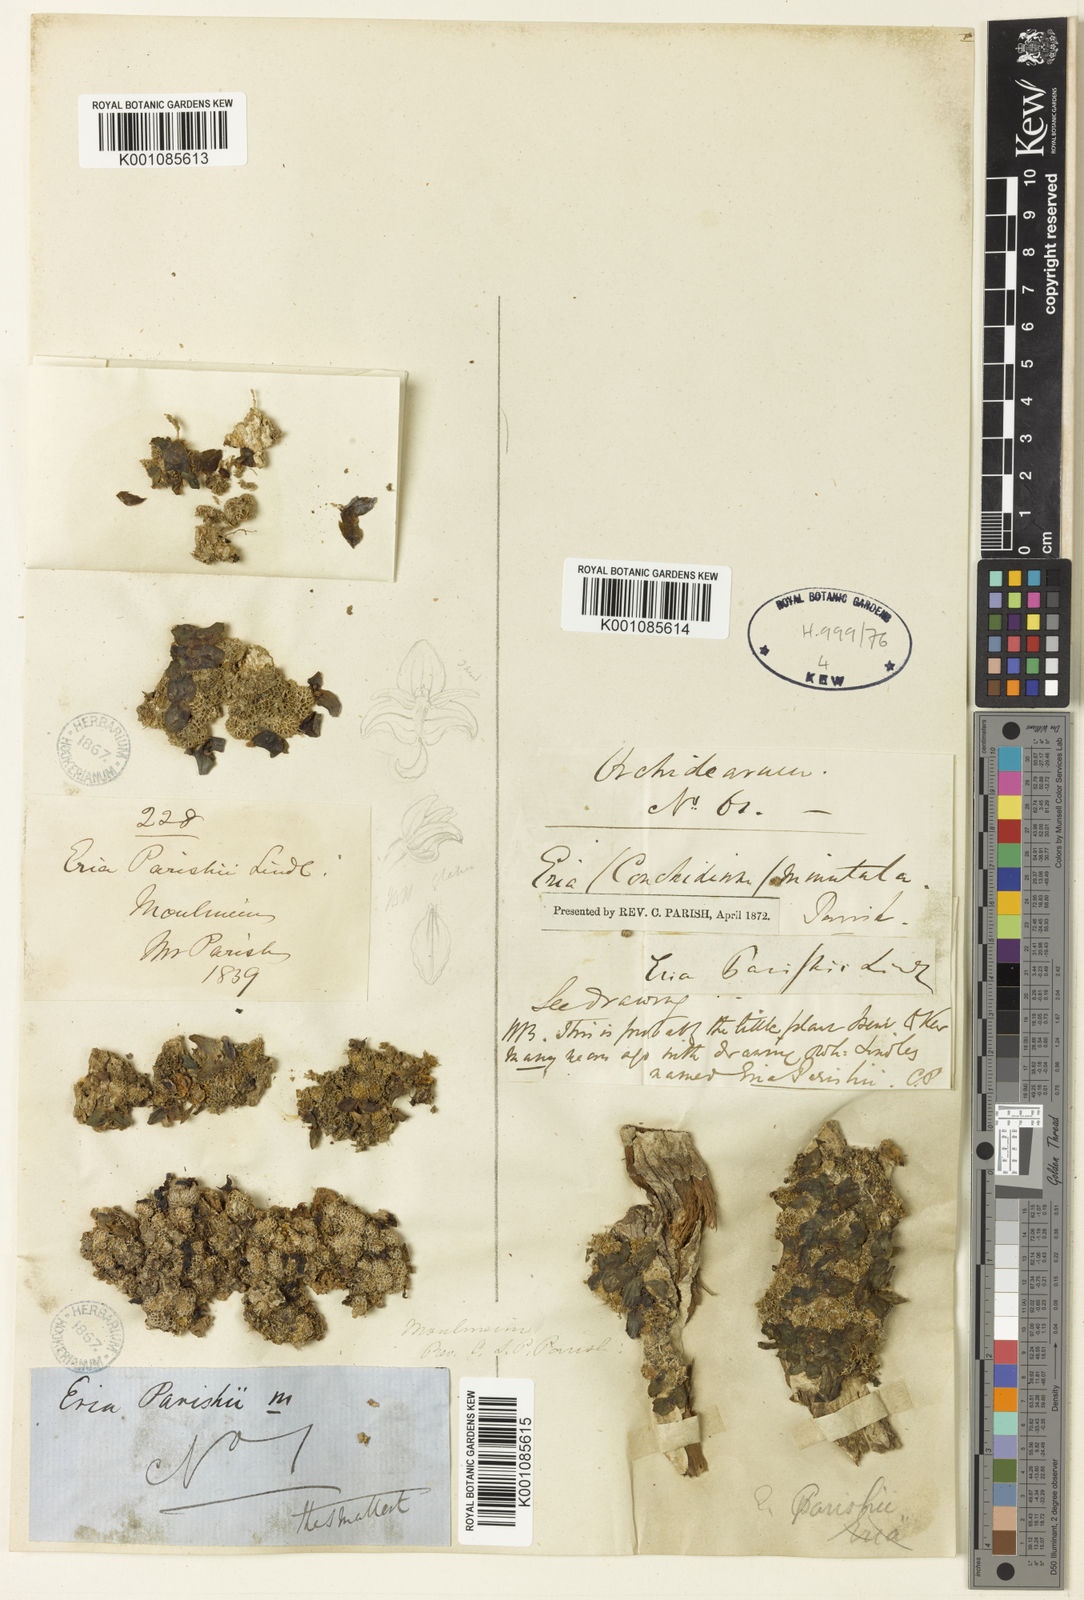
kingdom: Plantae
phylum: Tracheophyta
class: Liliopsida
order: Asparagales
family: Orchidaceae
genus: Porpax
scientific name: Porpax parishii
